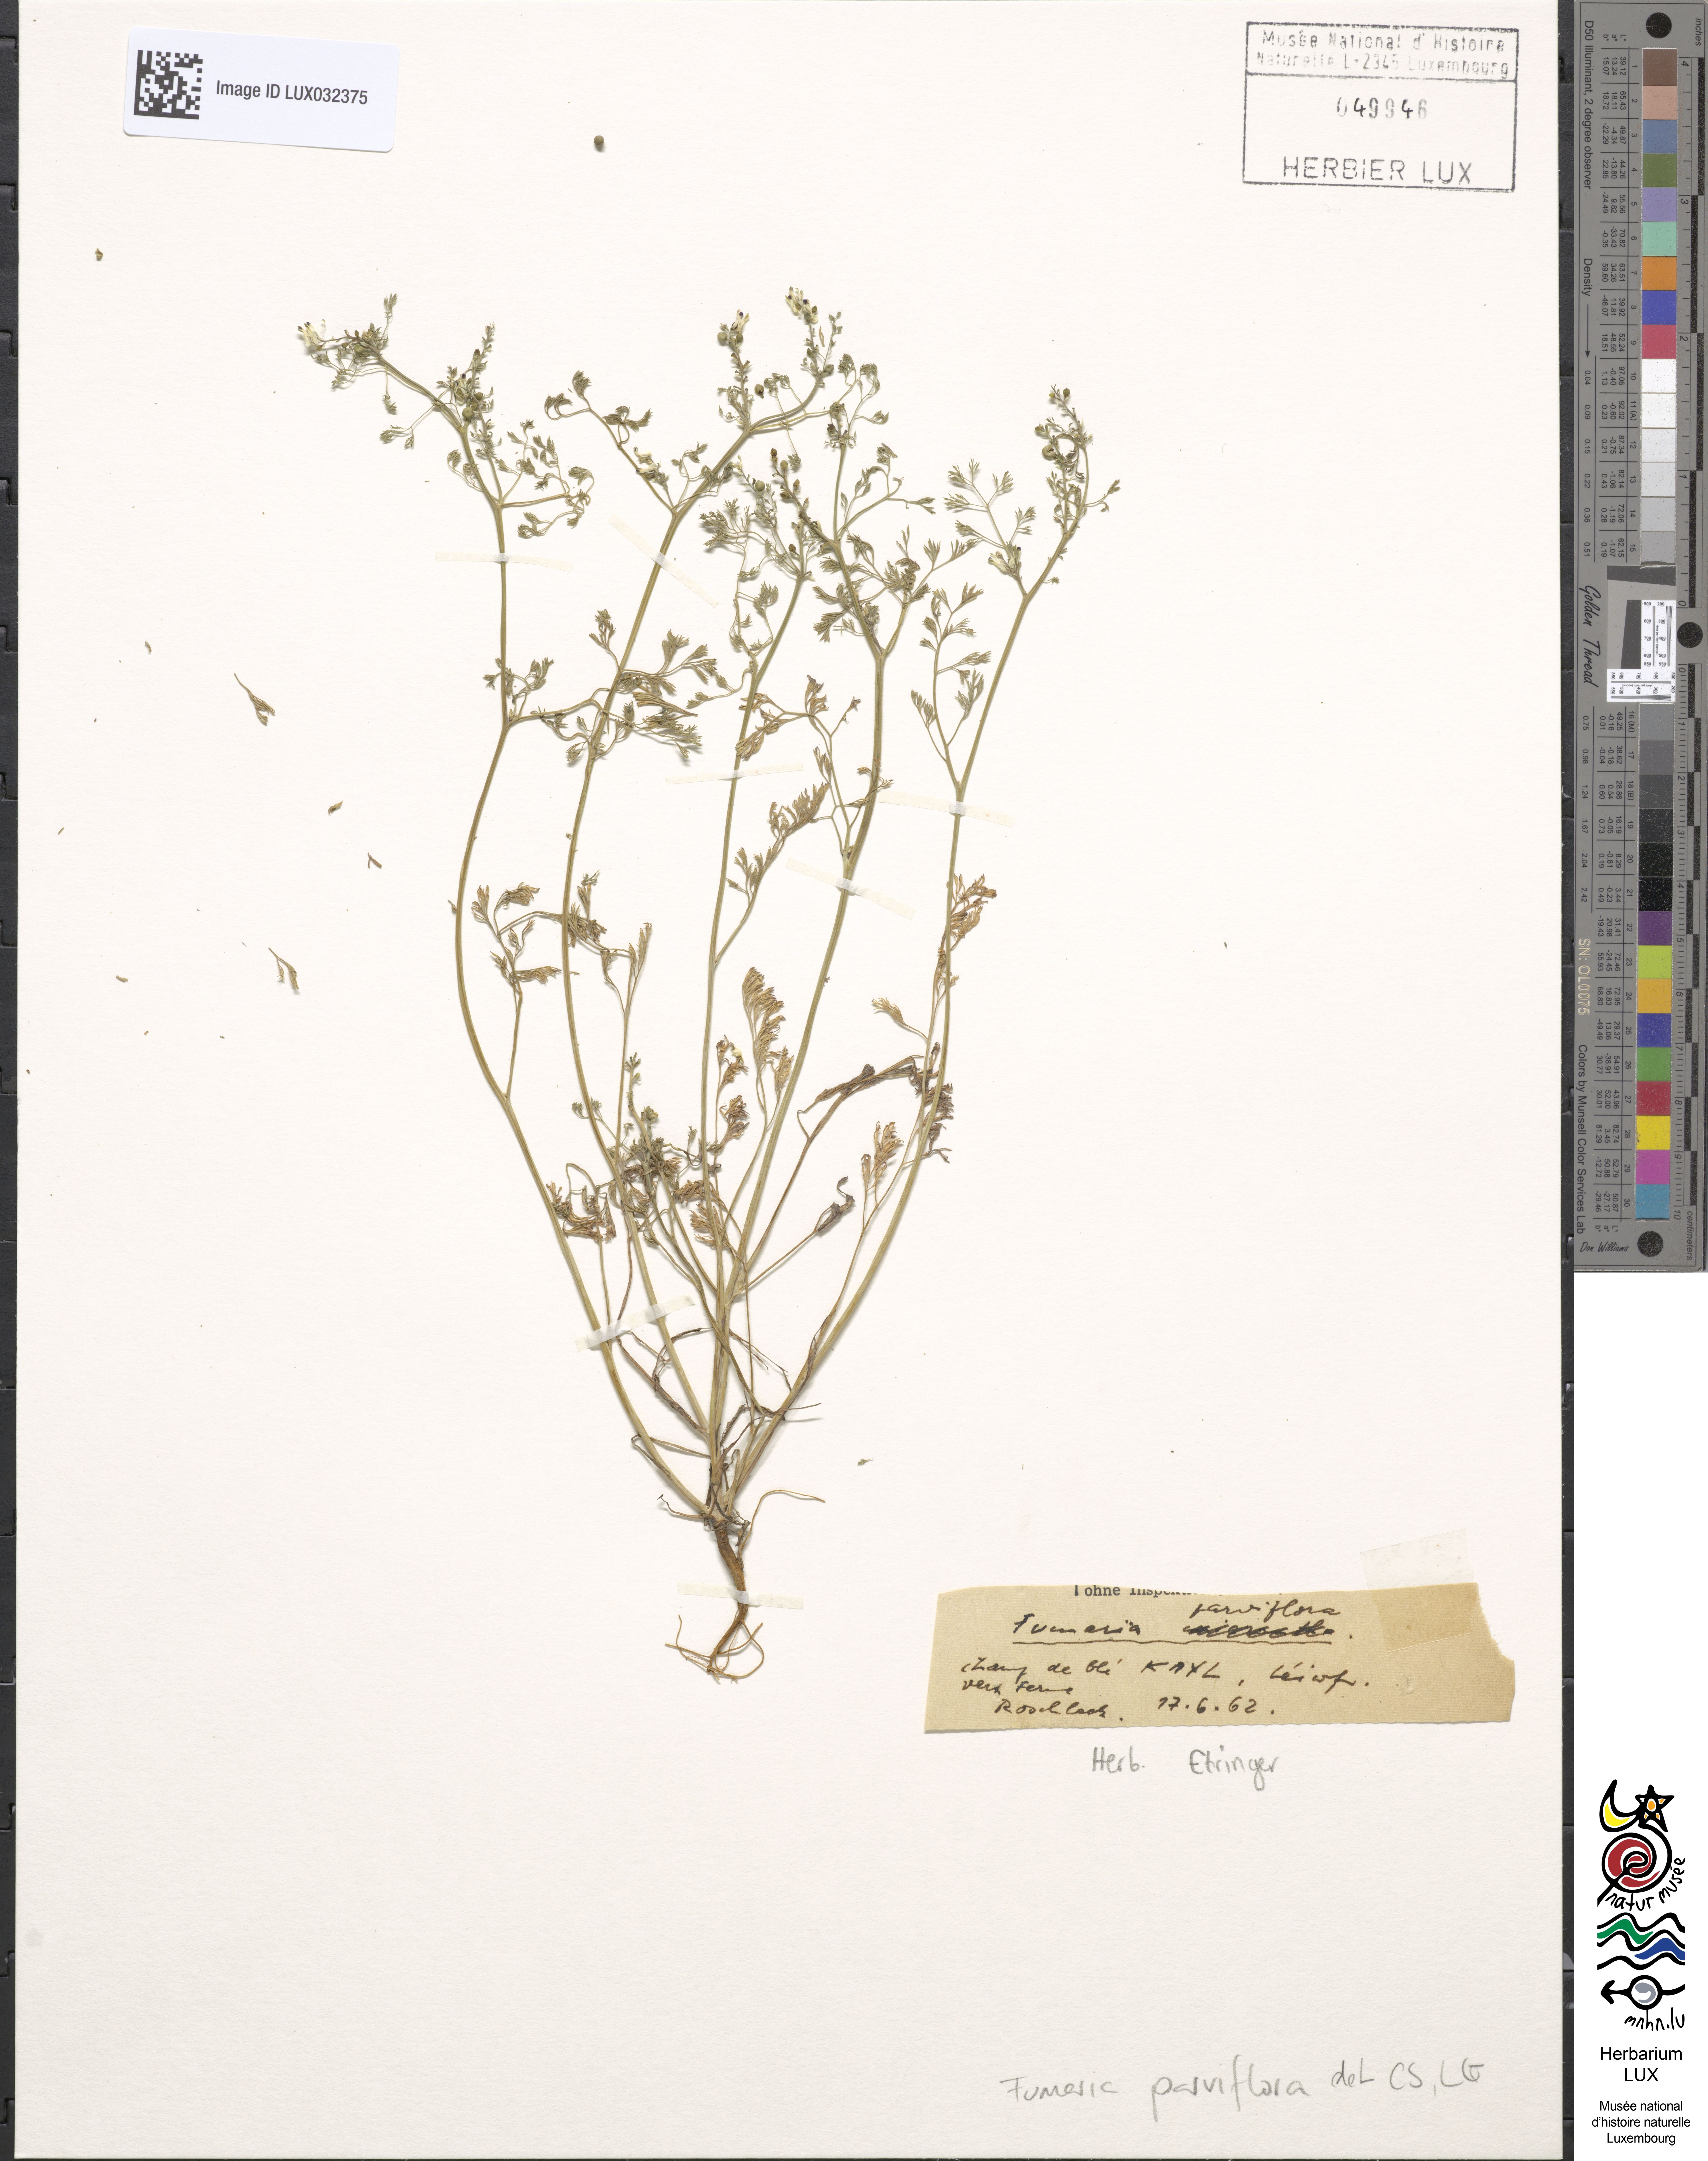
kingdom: Plantae
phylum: Tracheophyta
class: Magnoliopsida
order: Ranunculales
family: Papaveraceae
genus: Fumaria
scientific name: Fumaria parviflora
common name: Fine-leaved fumitory
